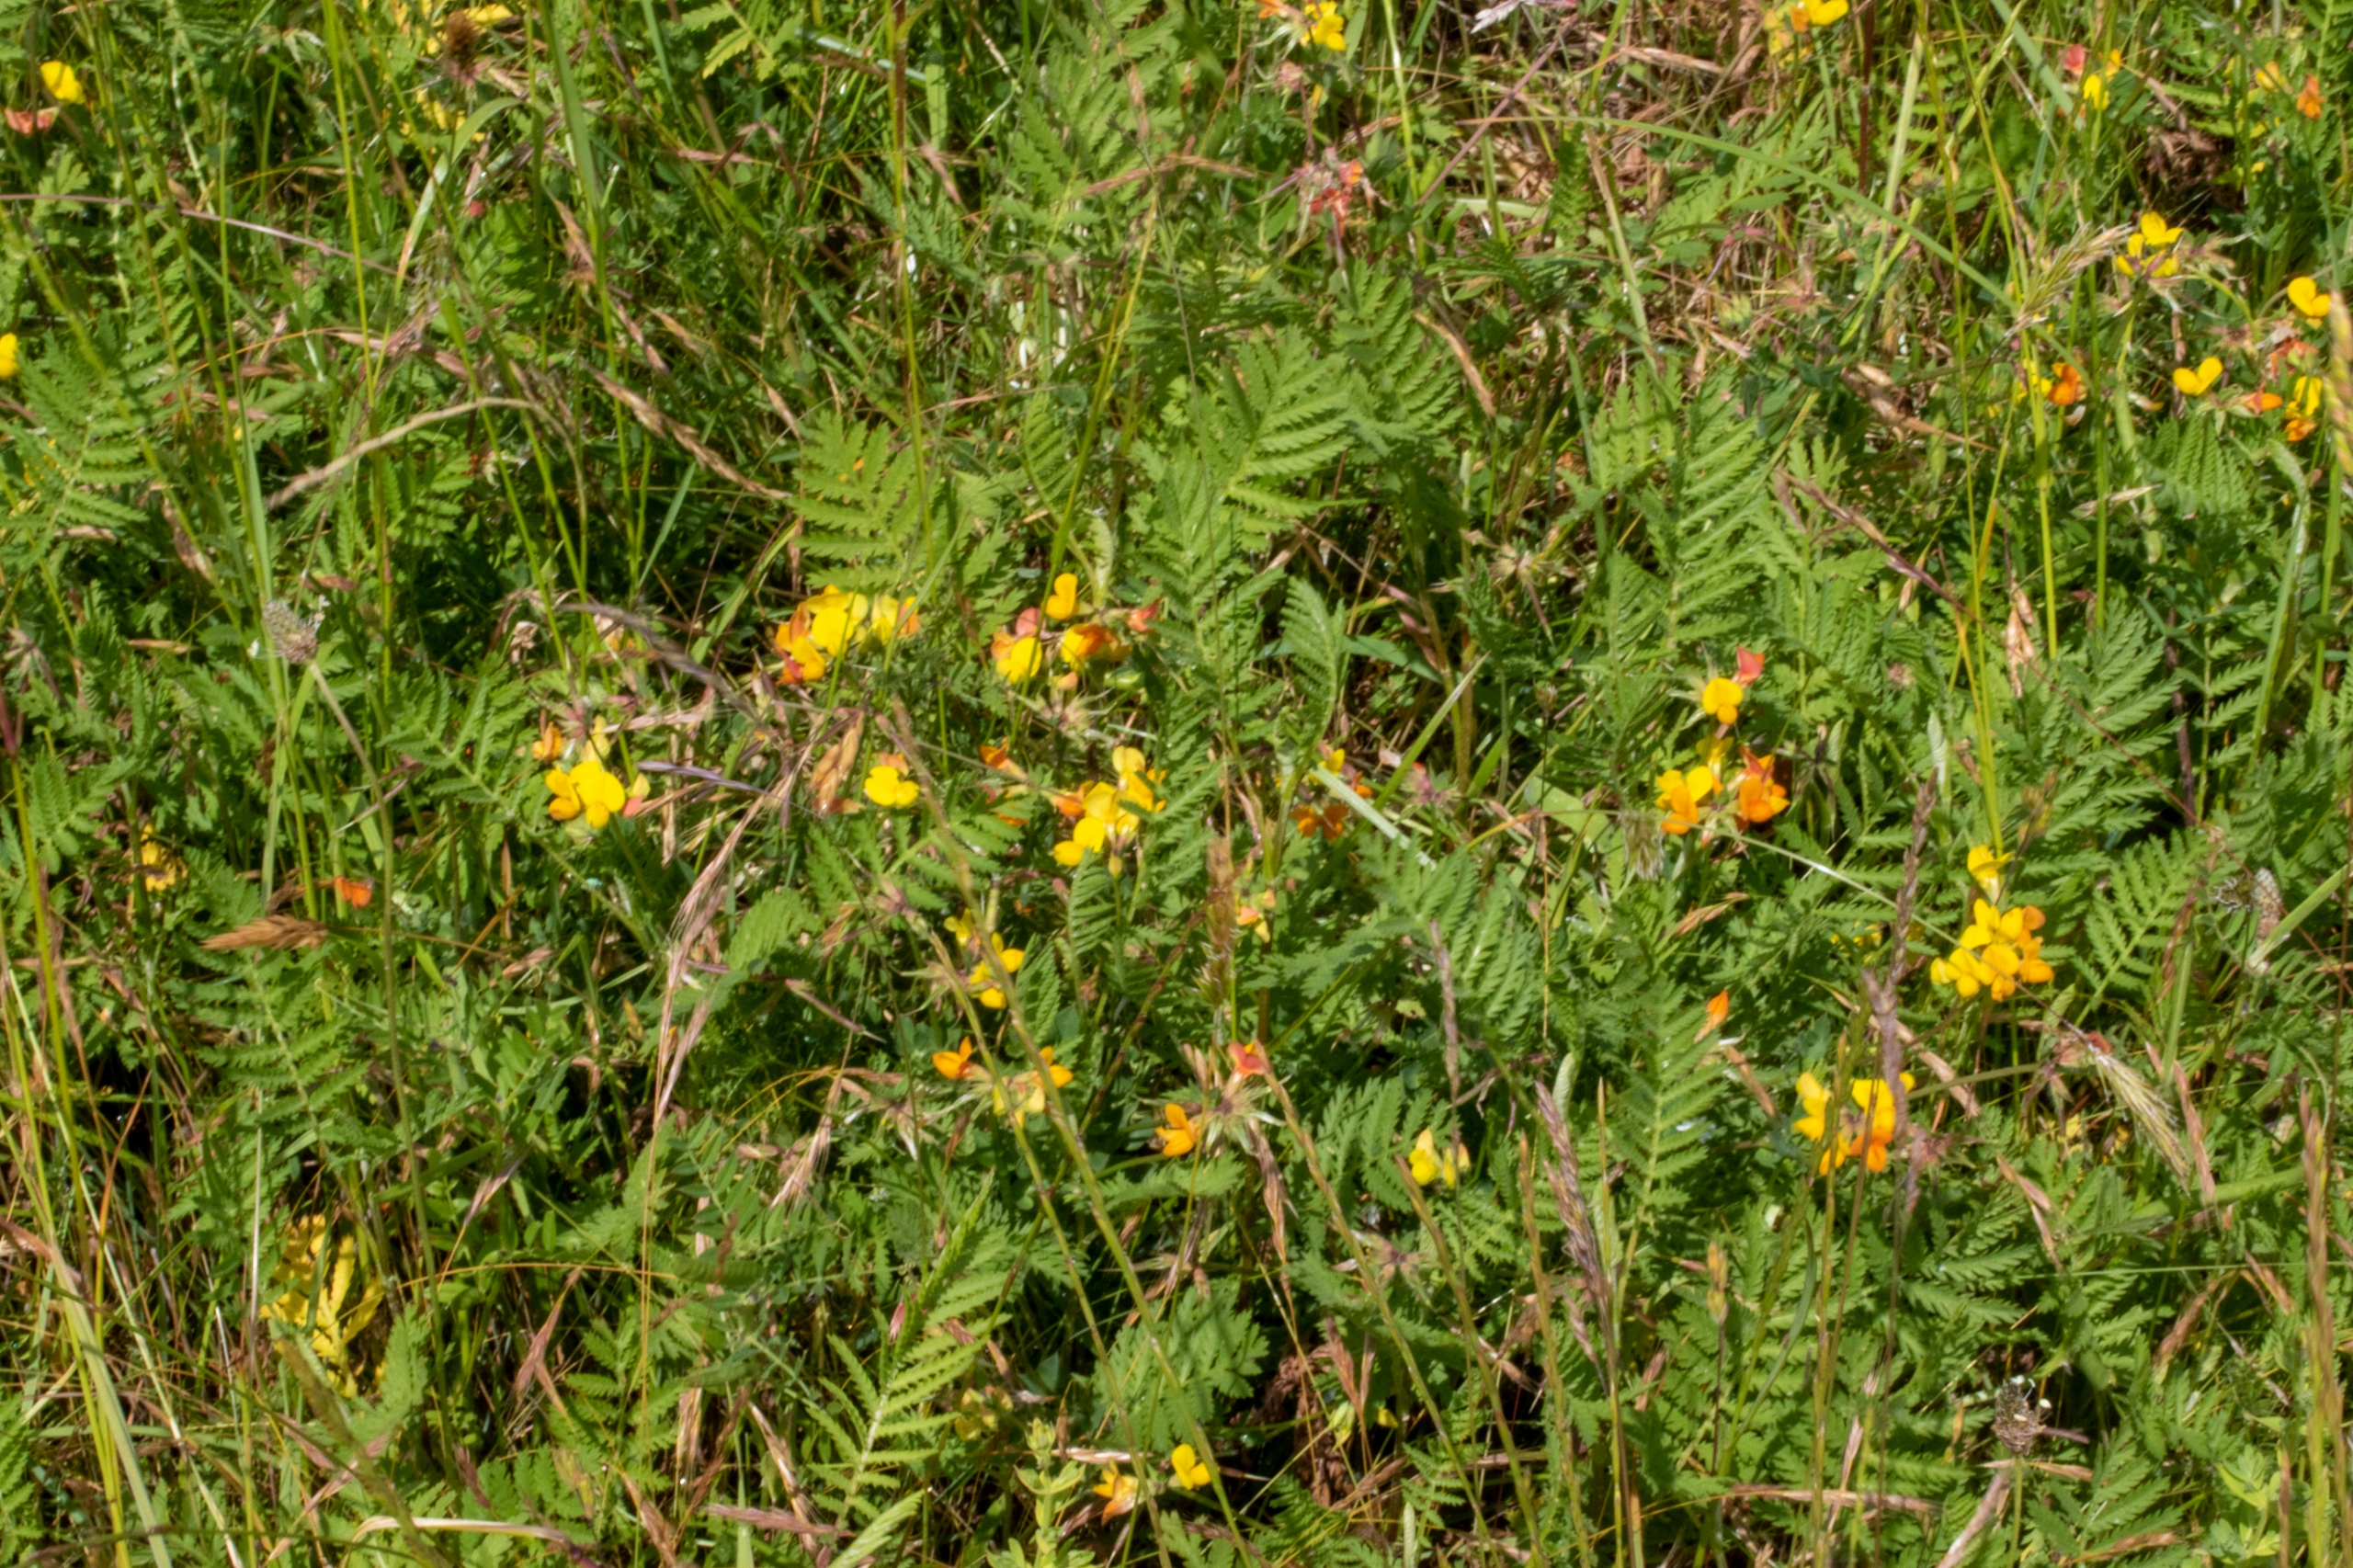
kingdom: Plantae
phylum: Tracheophyta
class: Magnoliopsida
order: Fabales
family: Fabaceae
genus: Lotus
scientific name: Lotus corniculatus
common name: Almindelig kællingetand
